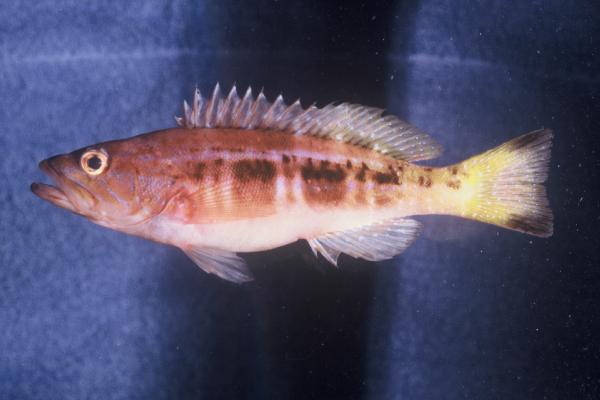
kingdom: Animalia
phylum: Chordata
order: Perciformes
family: Serranidae
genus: Serranus
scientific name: Serranus atricauda
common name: Blacktail comber
